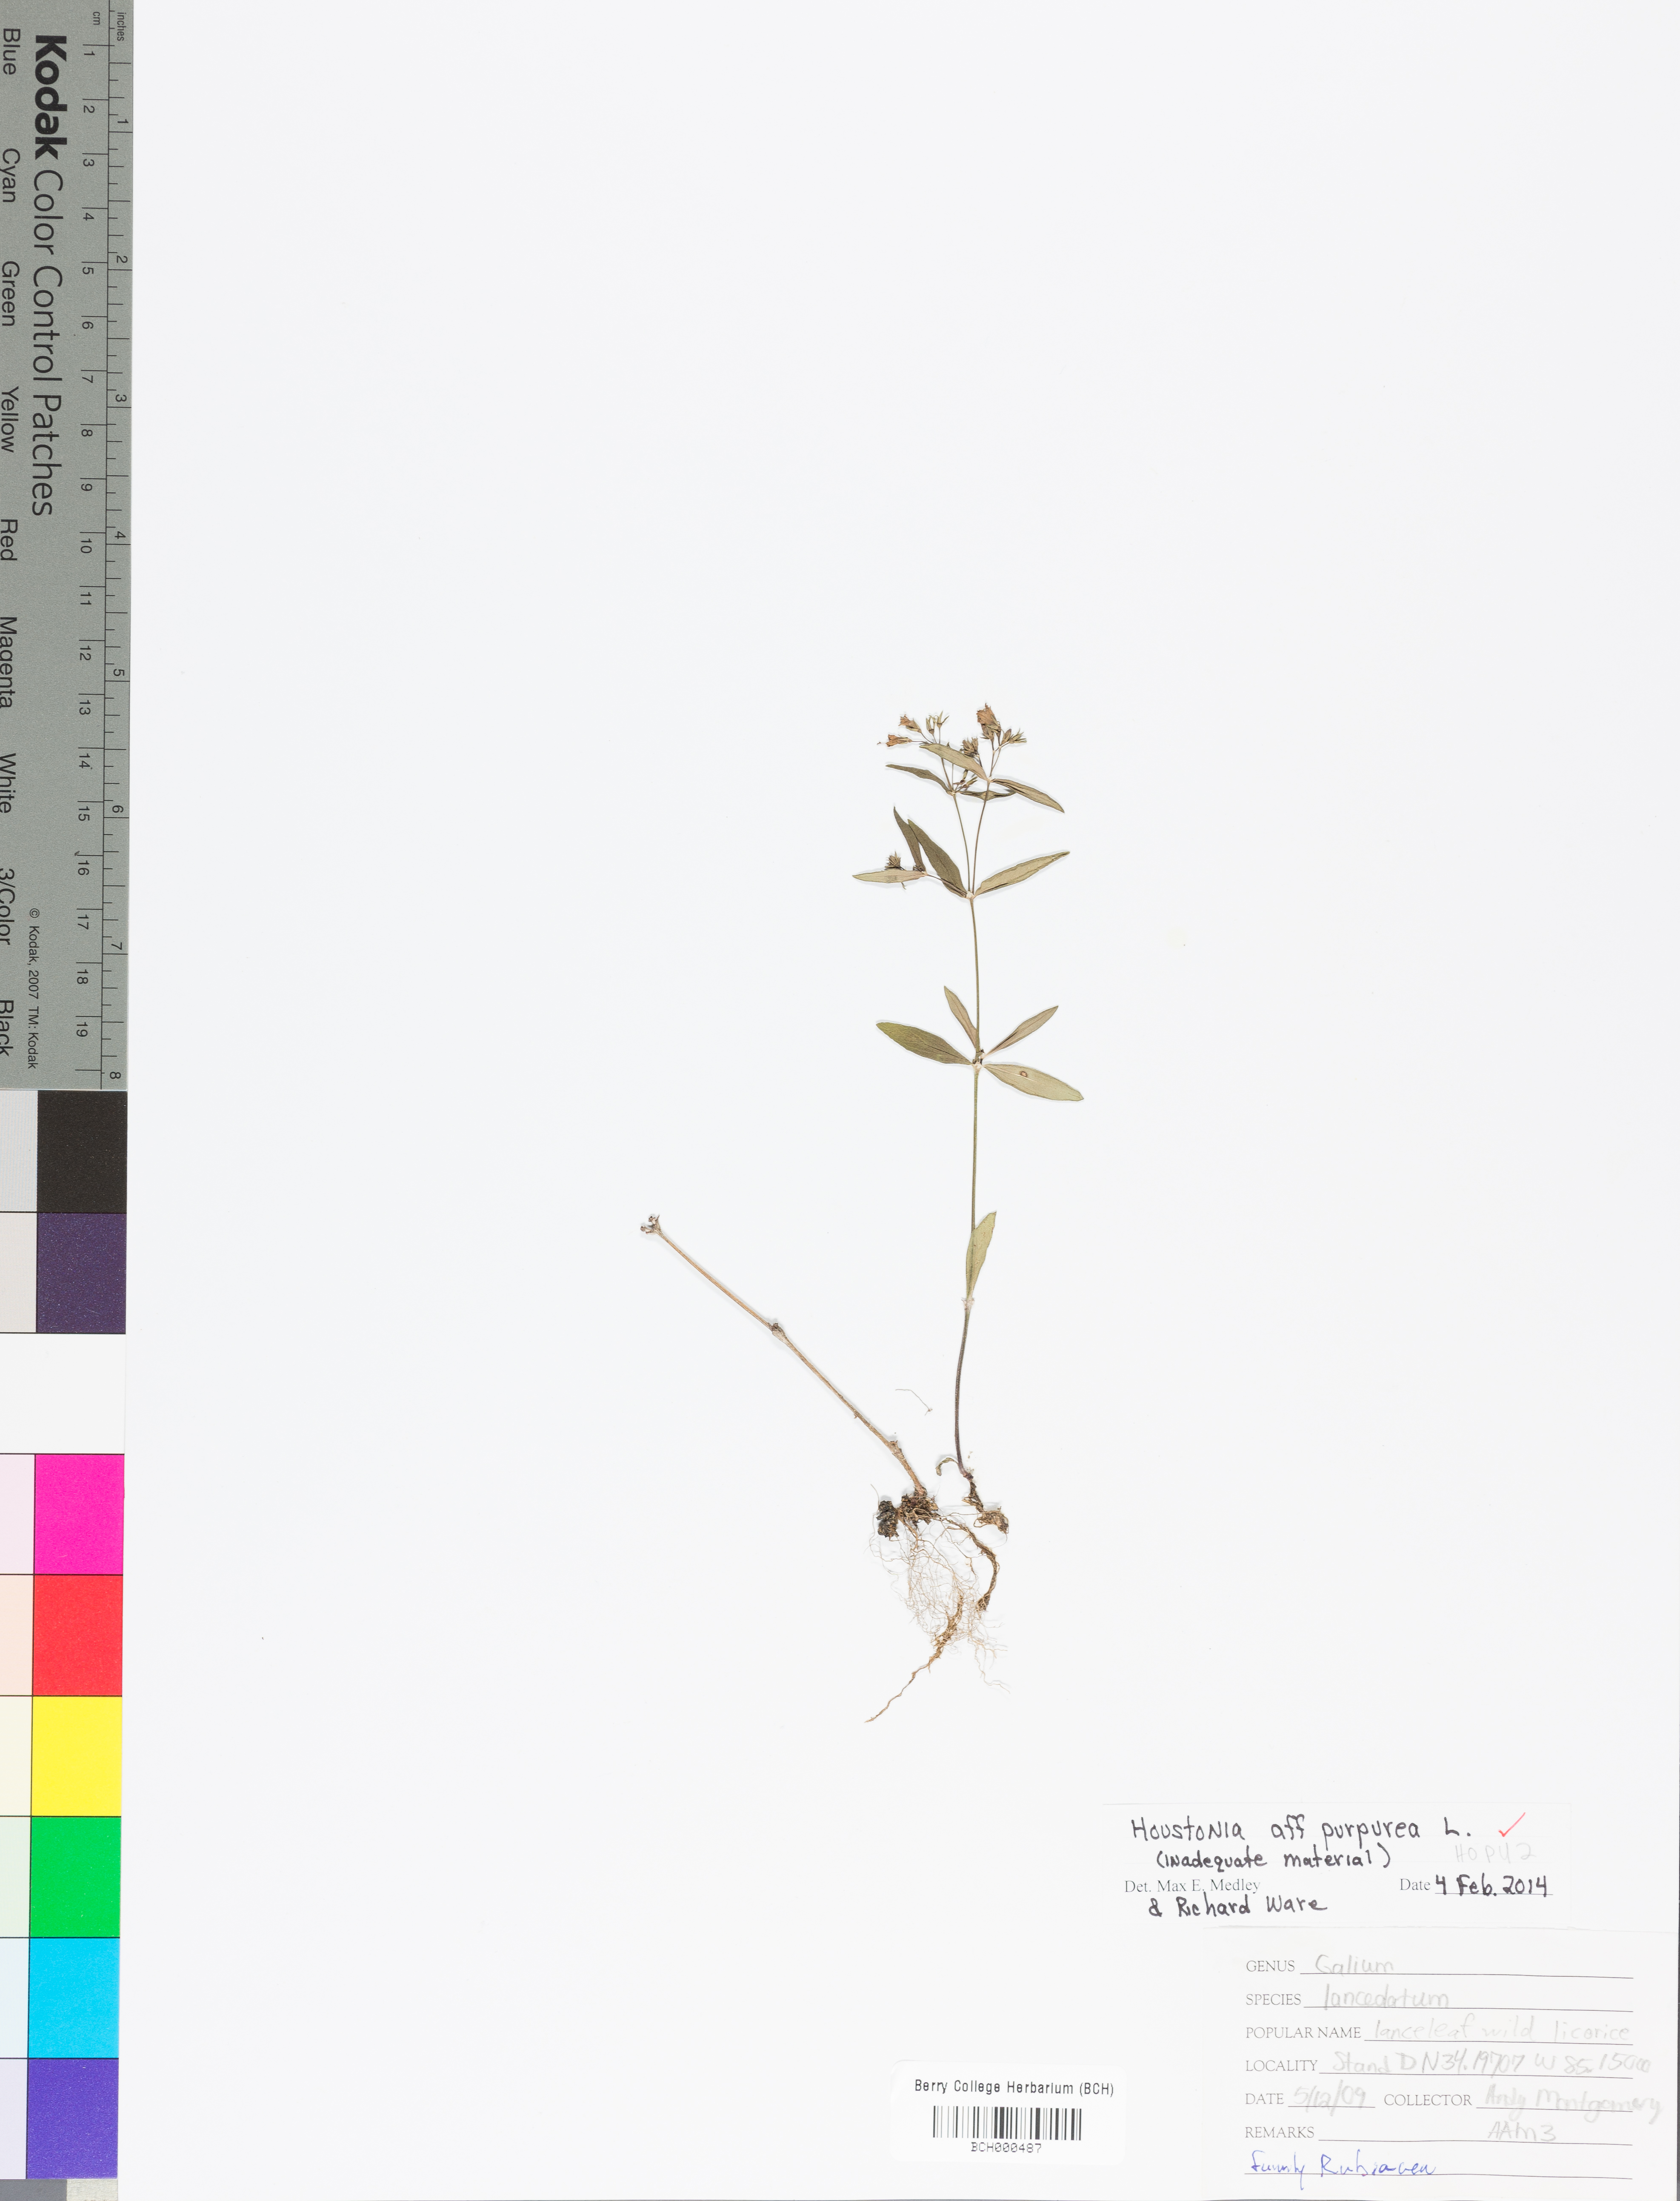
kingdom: Plantae
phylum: Tracheophyta
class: Magnoliopsida
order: Gentianales
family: Rubiaceae
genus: Houstonia
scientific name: Houstonia purpurea
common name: Summer bluet
